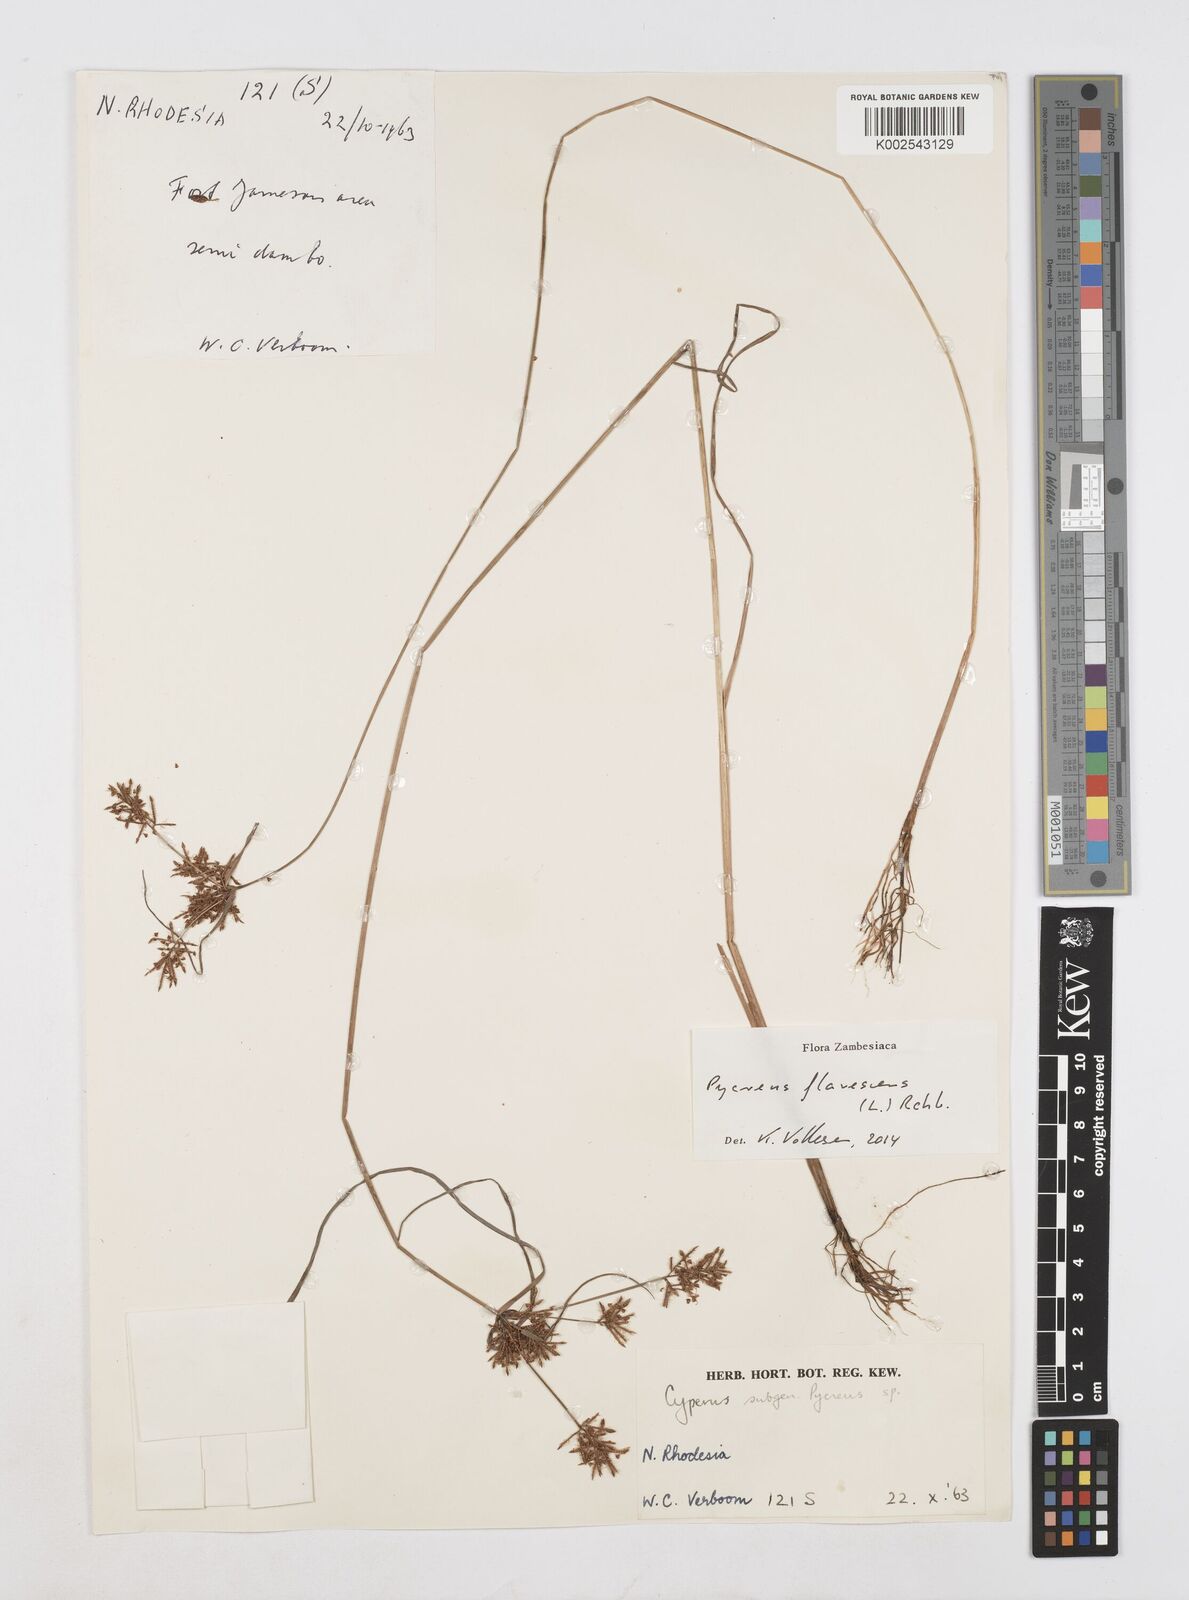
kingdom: Plantae
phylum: Tracheophyta
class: Liliopsida
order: Poales
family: Cyperaceae
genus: Cyperus
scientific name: Cyperus flavescens
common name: Yellow galingale
